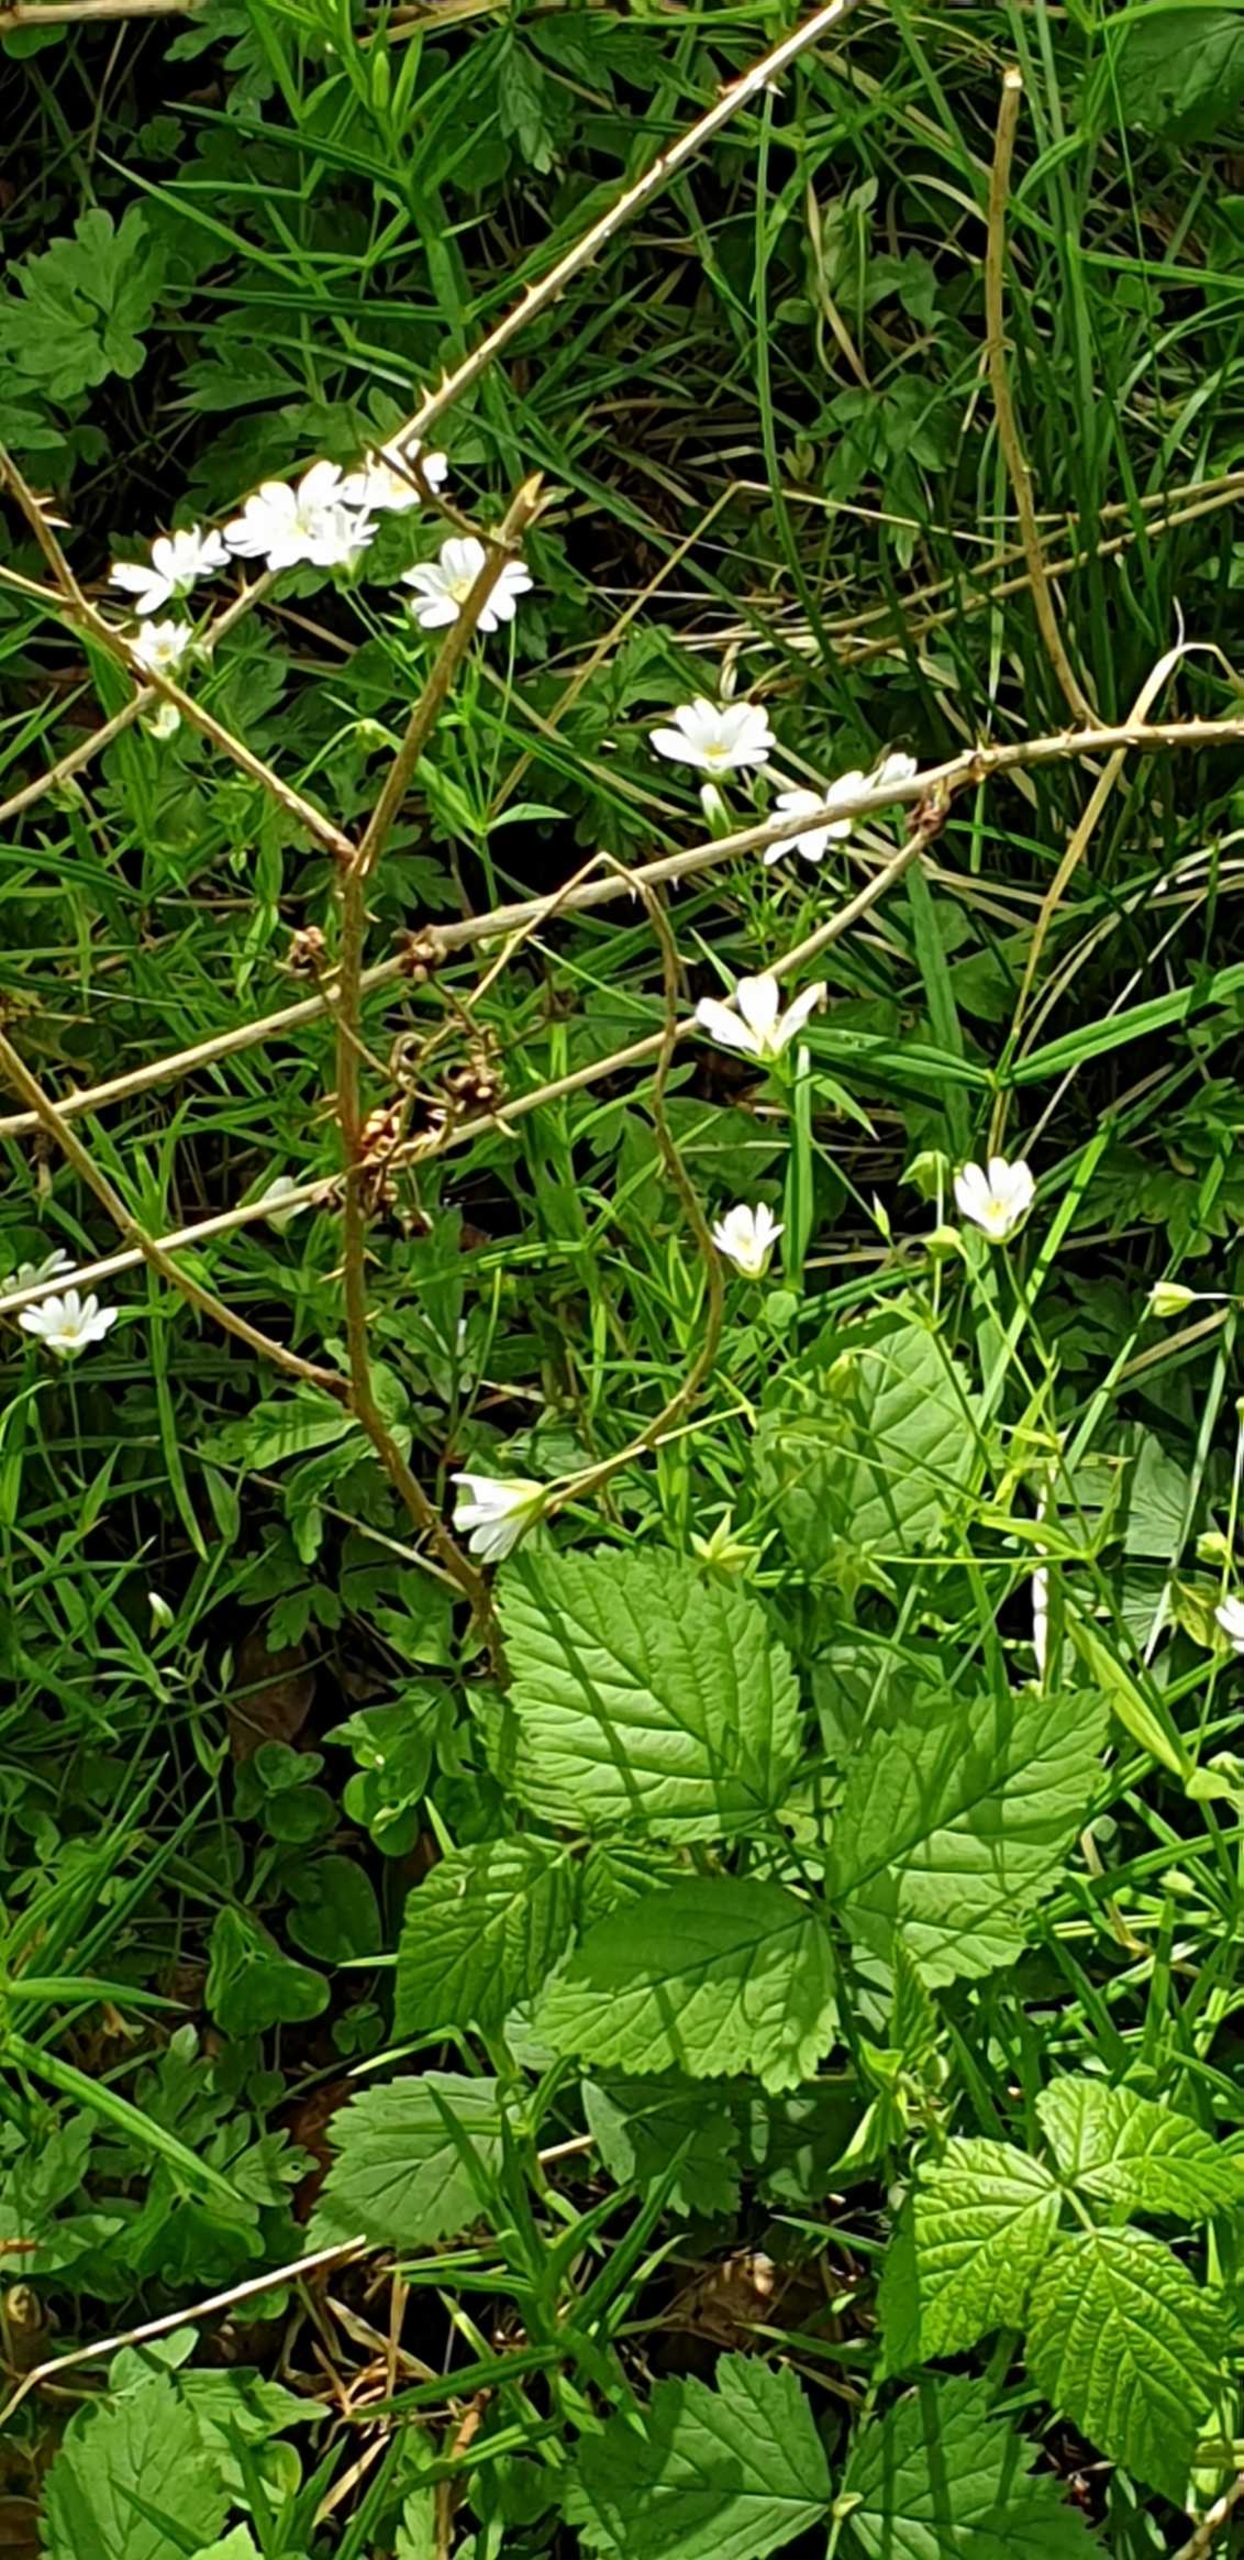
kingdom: Plantae
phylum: Tracheophyta
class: Magnoliopsida
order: Caryophyllales
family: Caryophyllaceae
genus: Rabelera
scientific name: Rabelera holostea
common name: Stor fladstjerne
